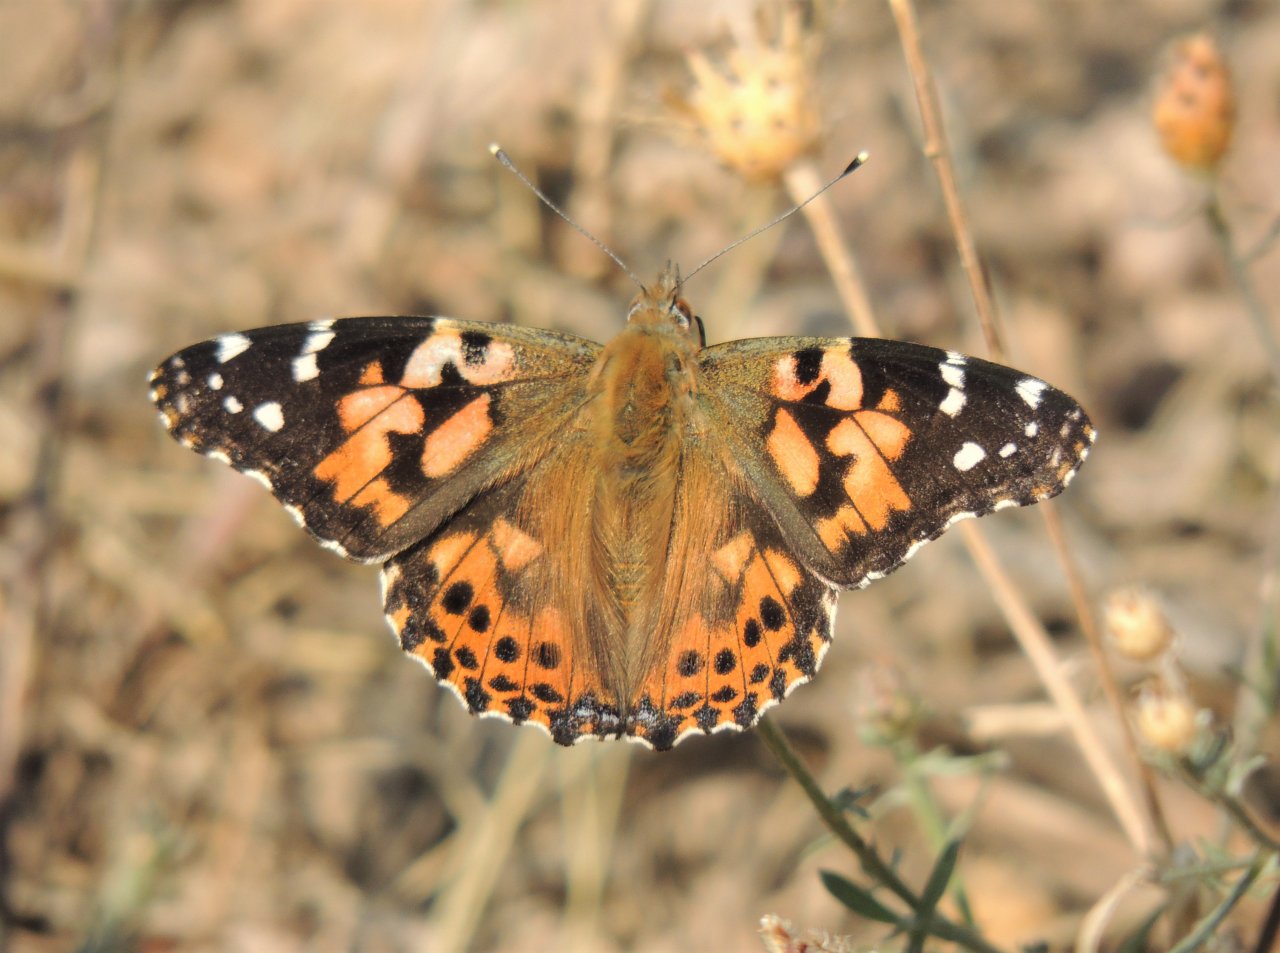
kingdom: Animalia
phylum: Arthropoda
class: Insecta
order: Lepidoptera
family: Nymphalidae
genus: Vanessa
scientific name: Vanessa cardui
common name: Painted Lady
